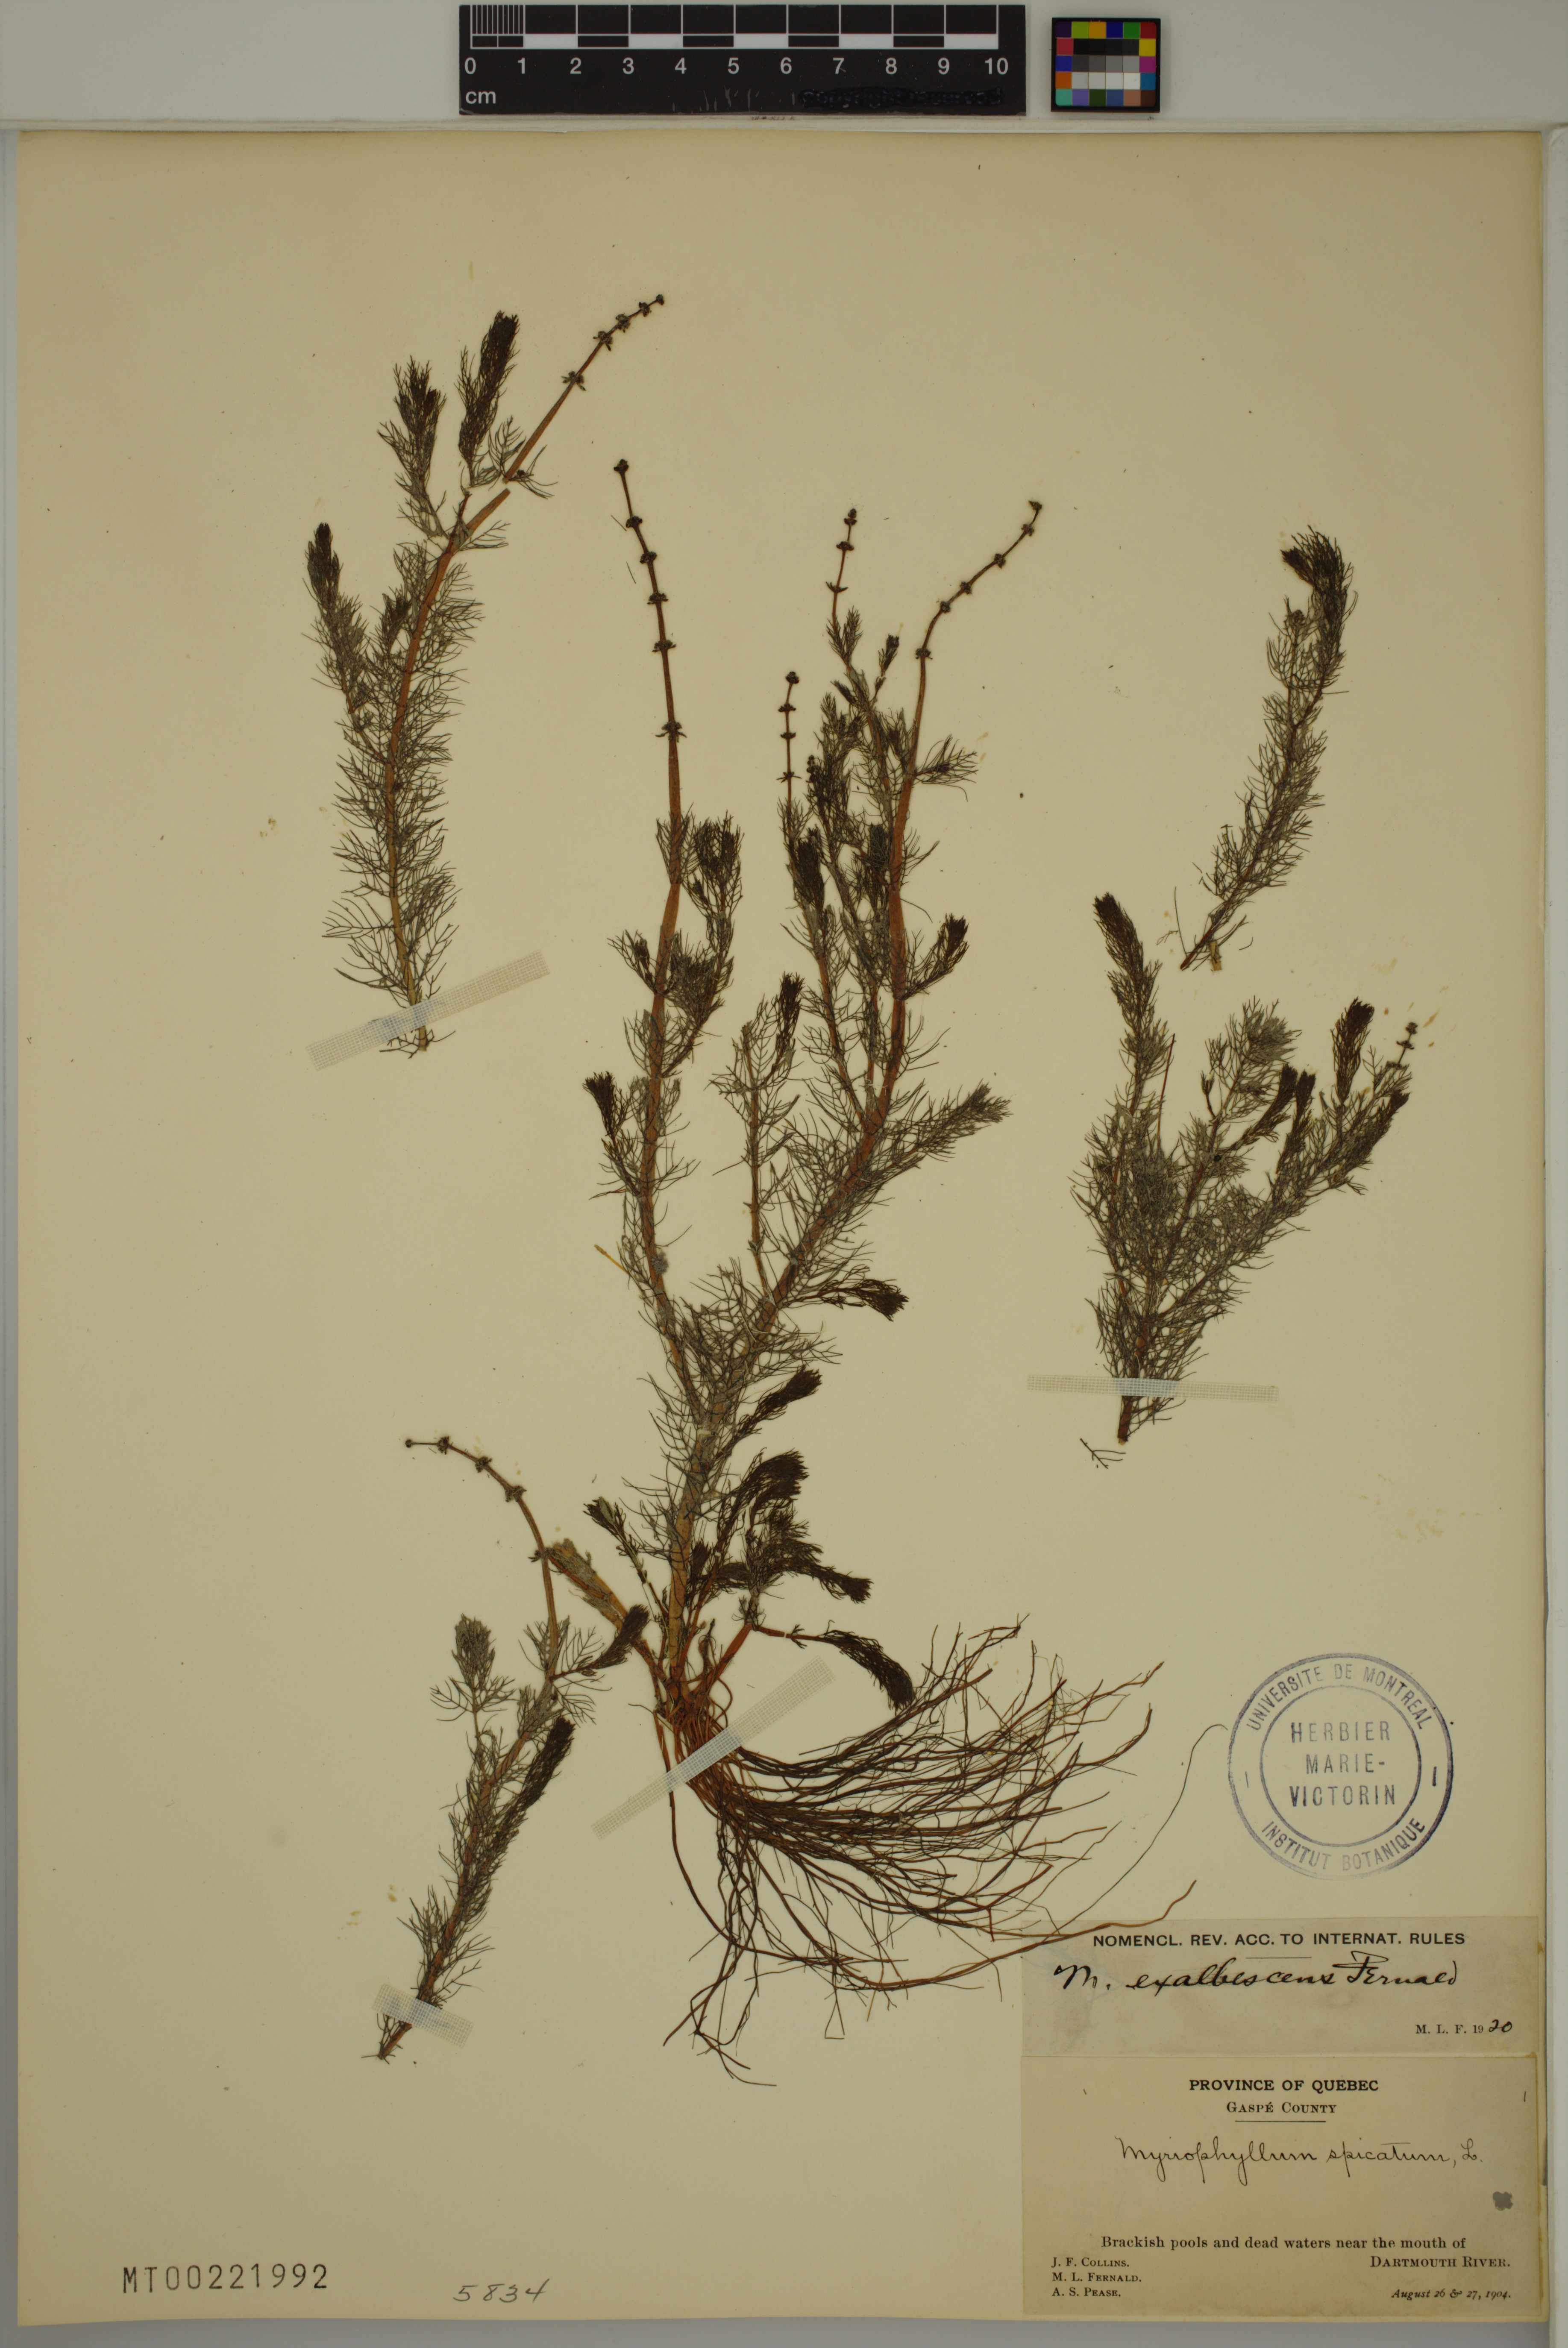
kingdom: Plantae
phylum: Tracheophyta
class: Magnoliopsida
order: Saxifragales
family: Haloragaceae
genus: Myriophyllum
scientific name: Myriophyllum sibiricum
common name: Siberian water-milfoil
